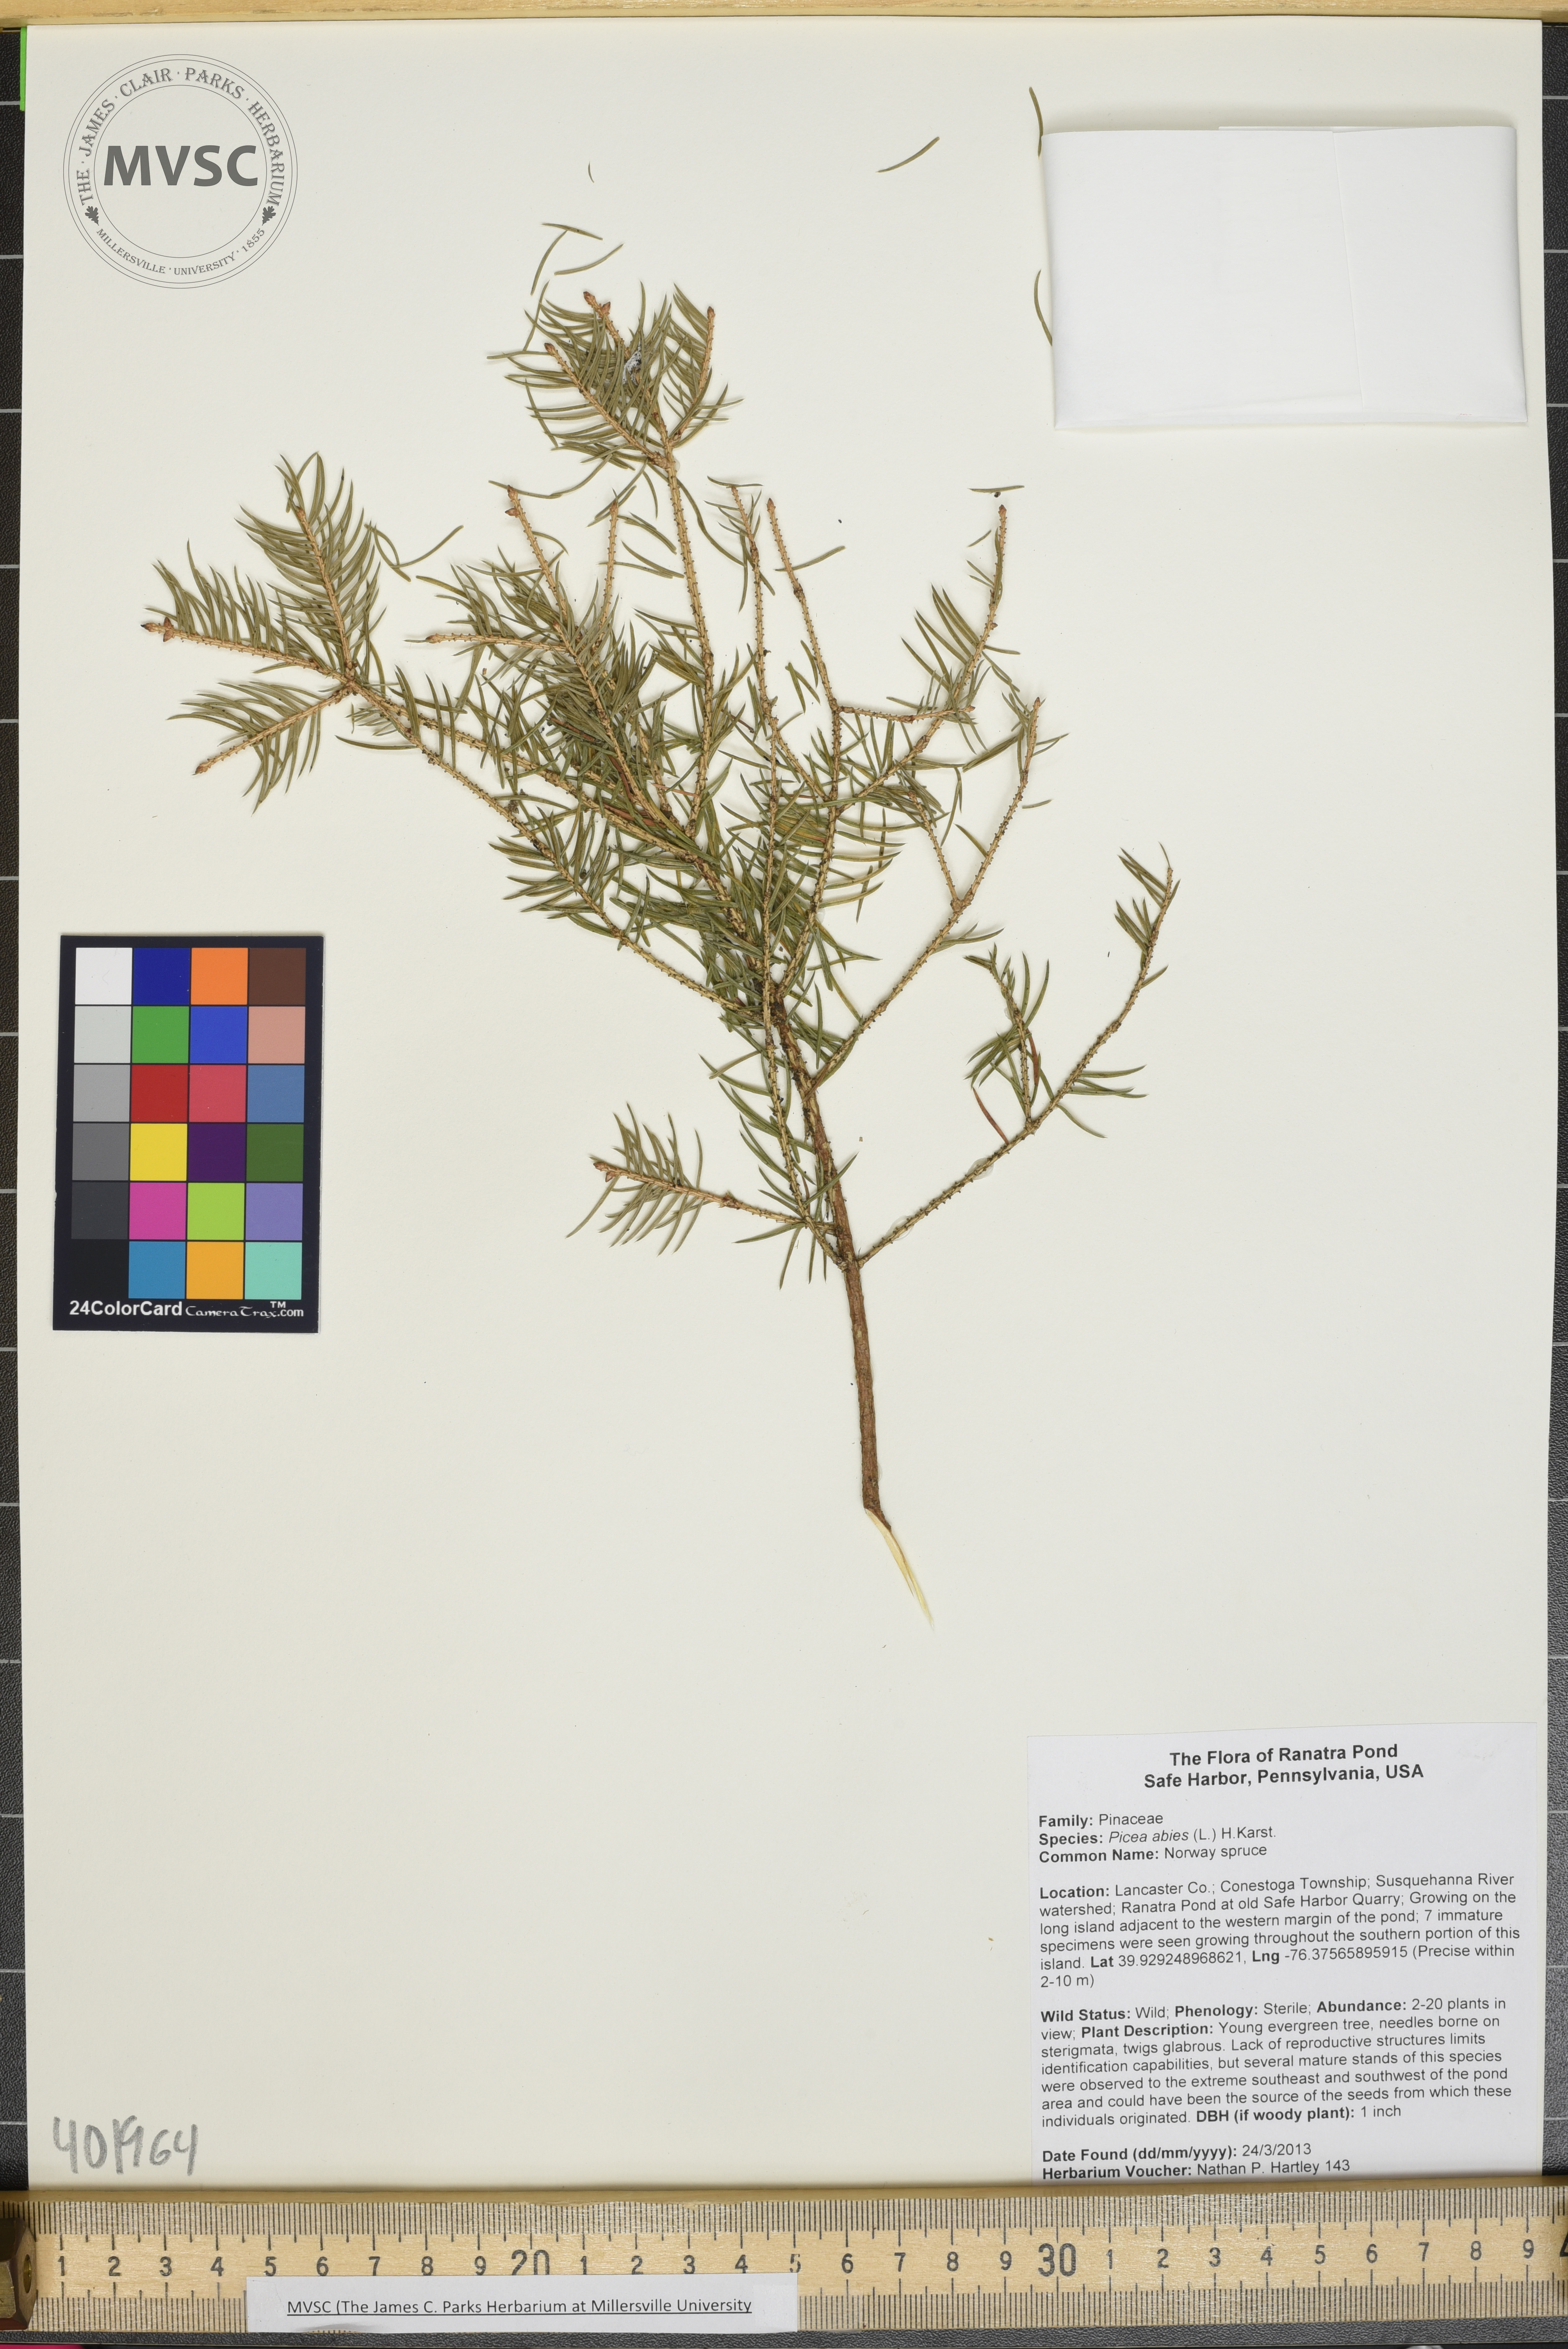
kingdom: Plantae
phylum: Tracheophyta
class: Pinopsida
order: Pinales
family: Pinaceae
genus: Picea
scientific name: Picea abies
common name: Norway spruce
